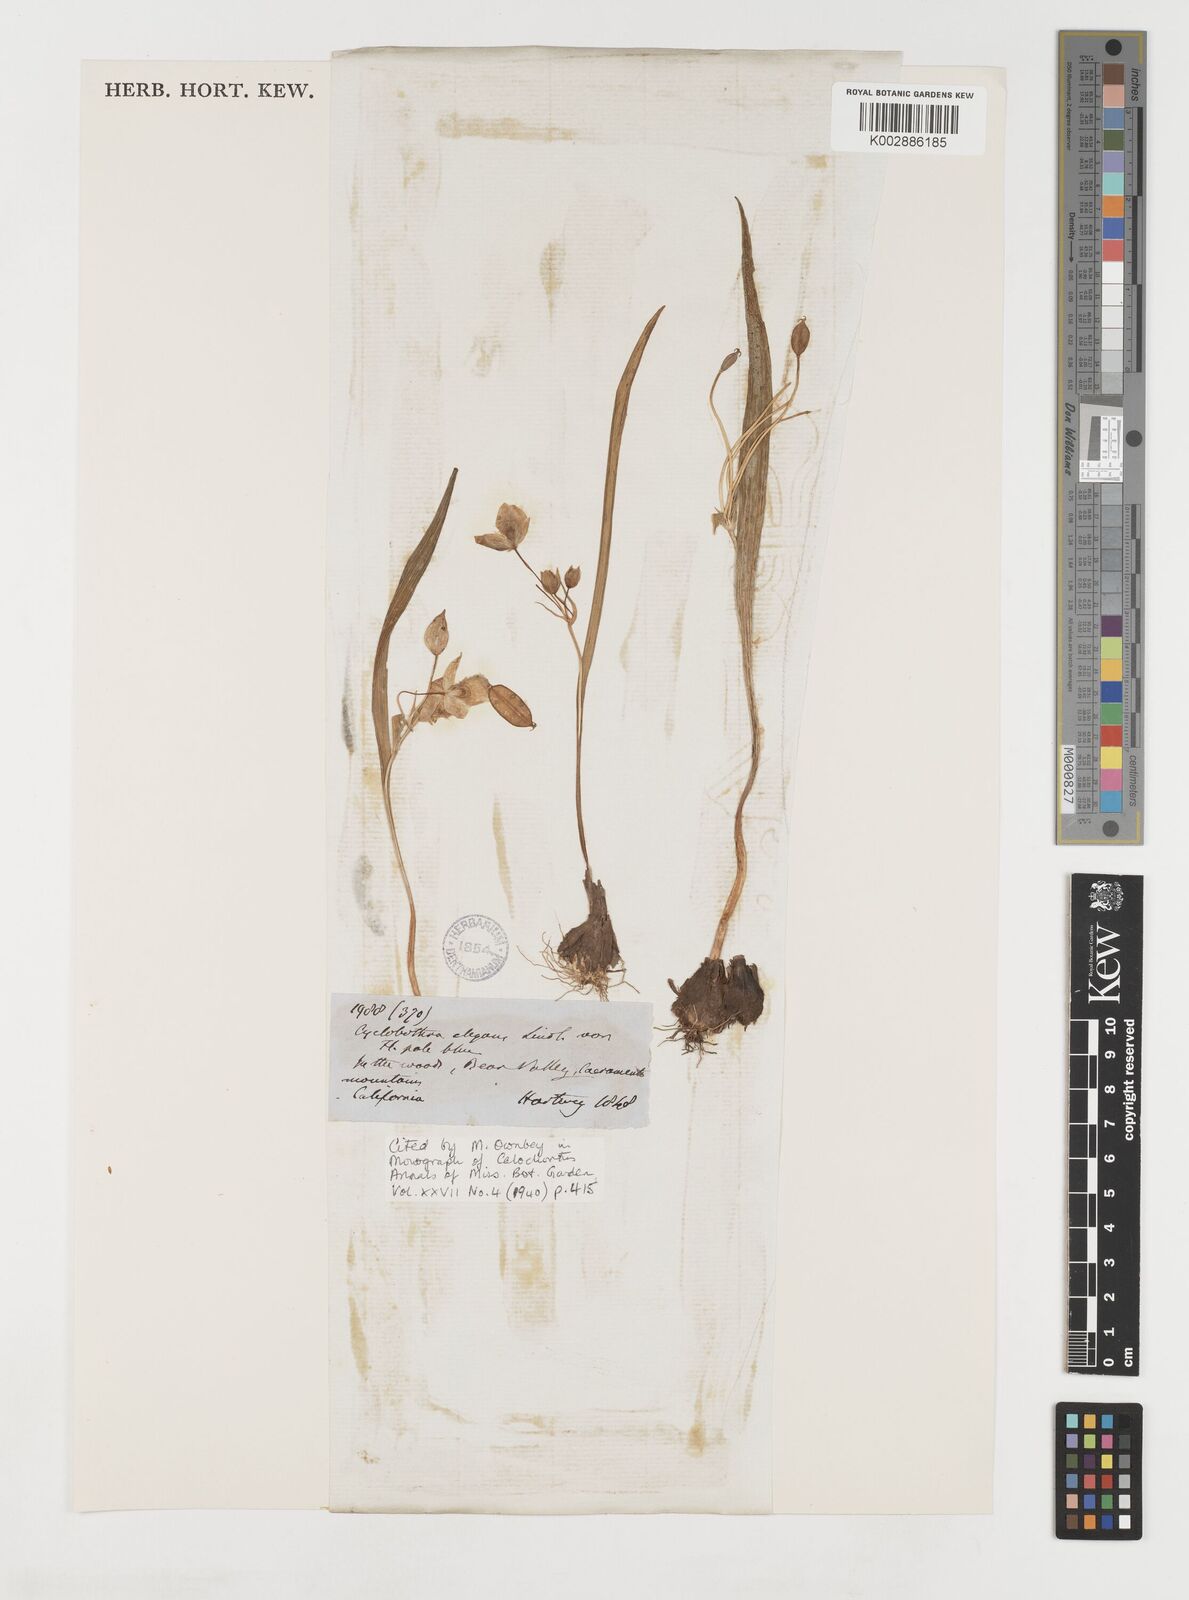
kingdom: Plantae
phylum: Tracheophyta
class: Liliopsida
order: Liliales
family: Liliaceae
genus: Calochortus
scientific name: Calochortus coeruleus
